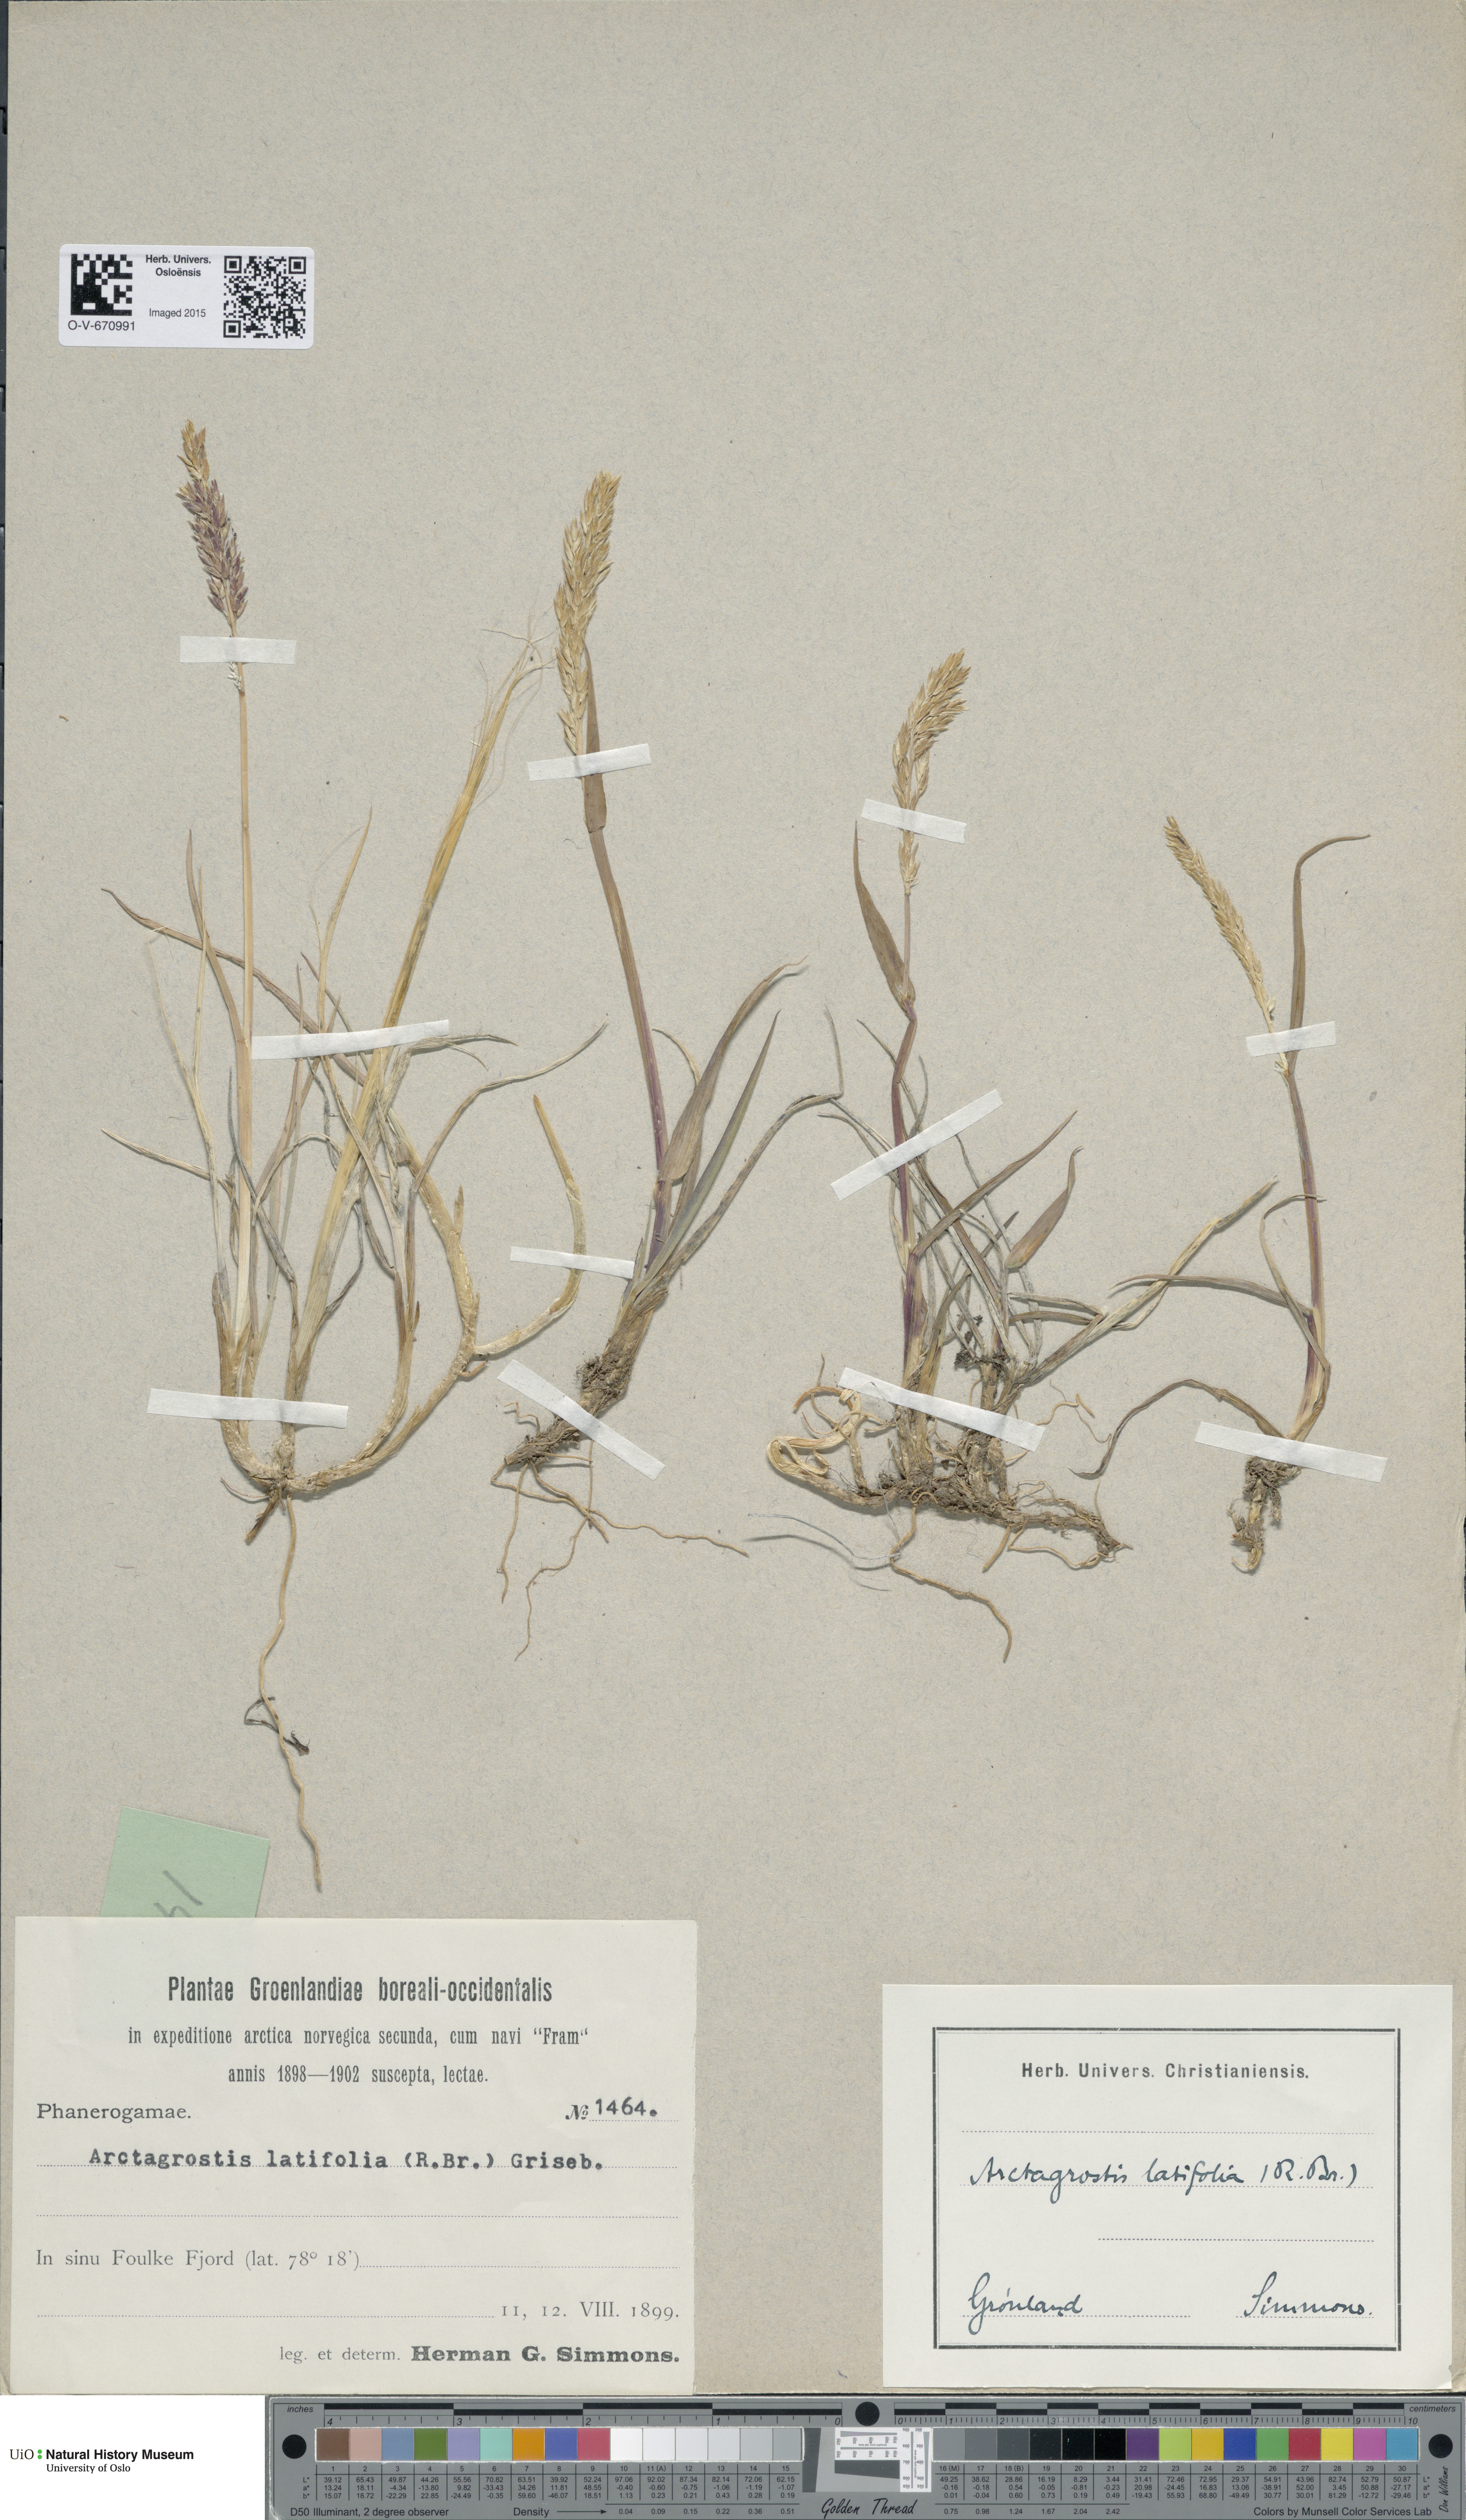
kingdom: Plantae
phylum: Tracheophyta
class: Liliopsida
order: Poales
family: Poaceae
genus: Arctagrostis
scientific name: Arctagrostis latifolia
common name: Arctic grass
